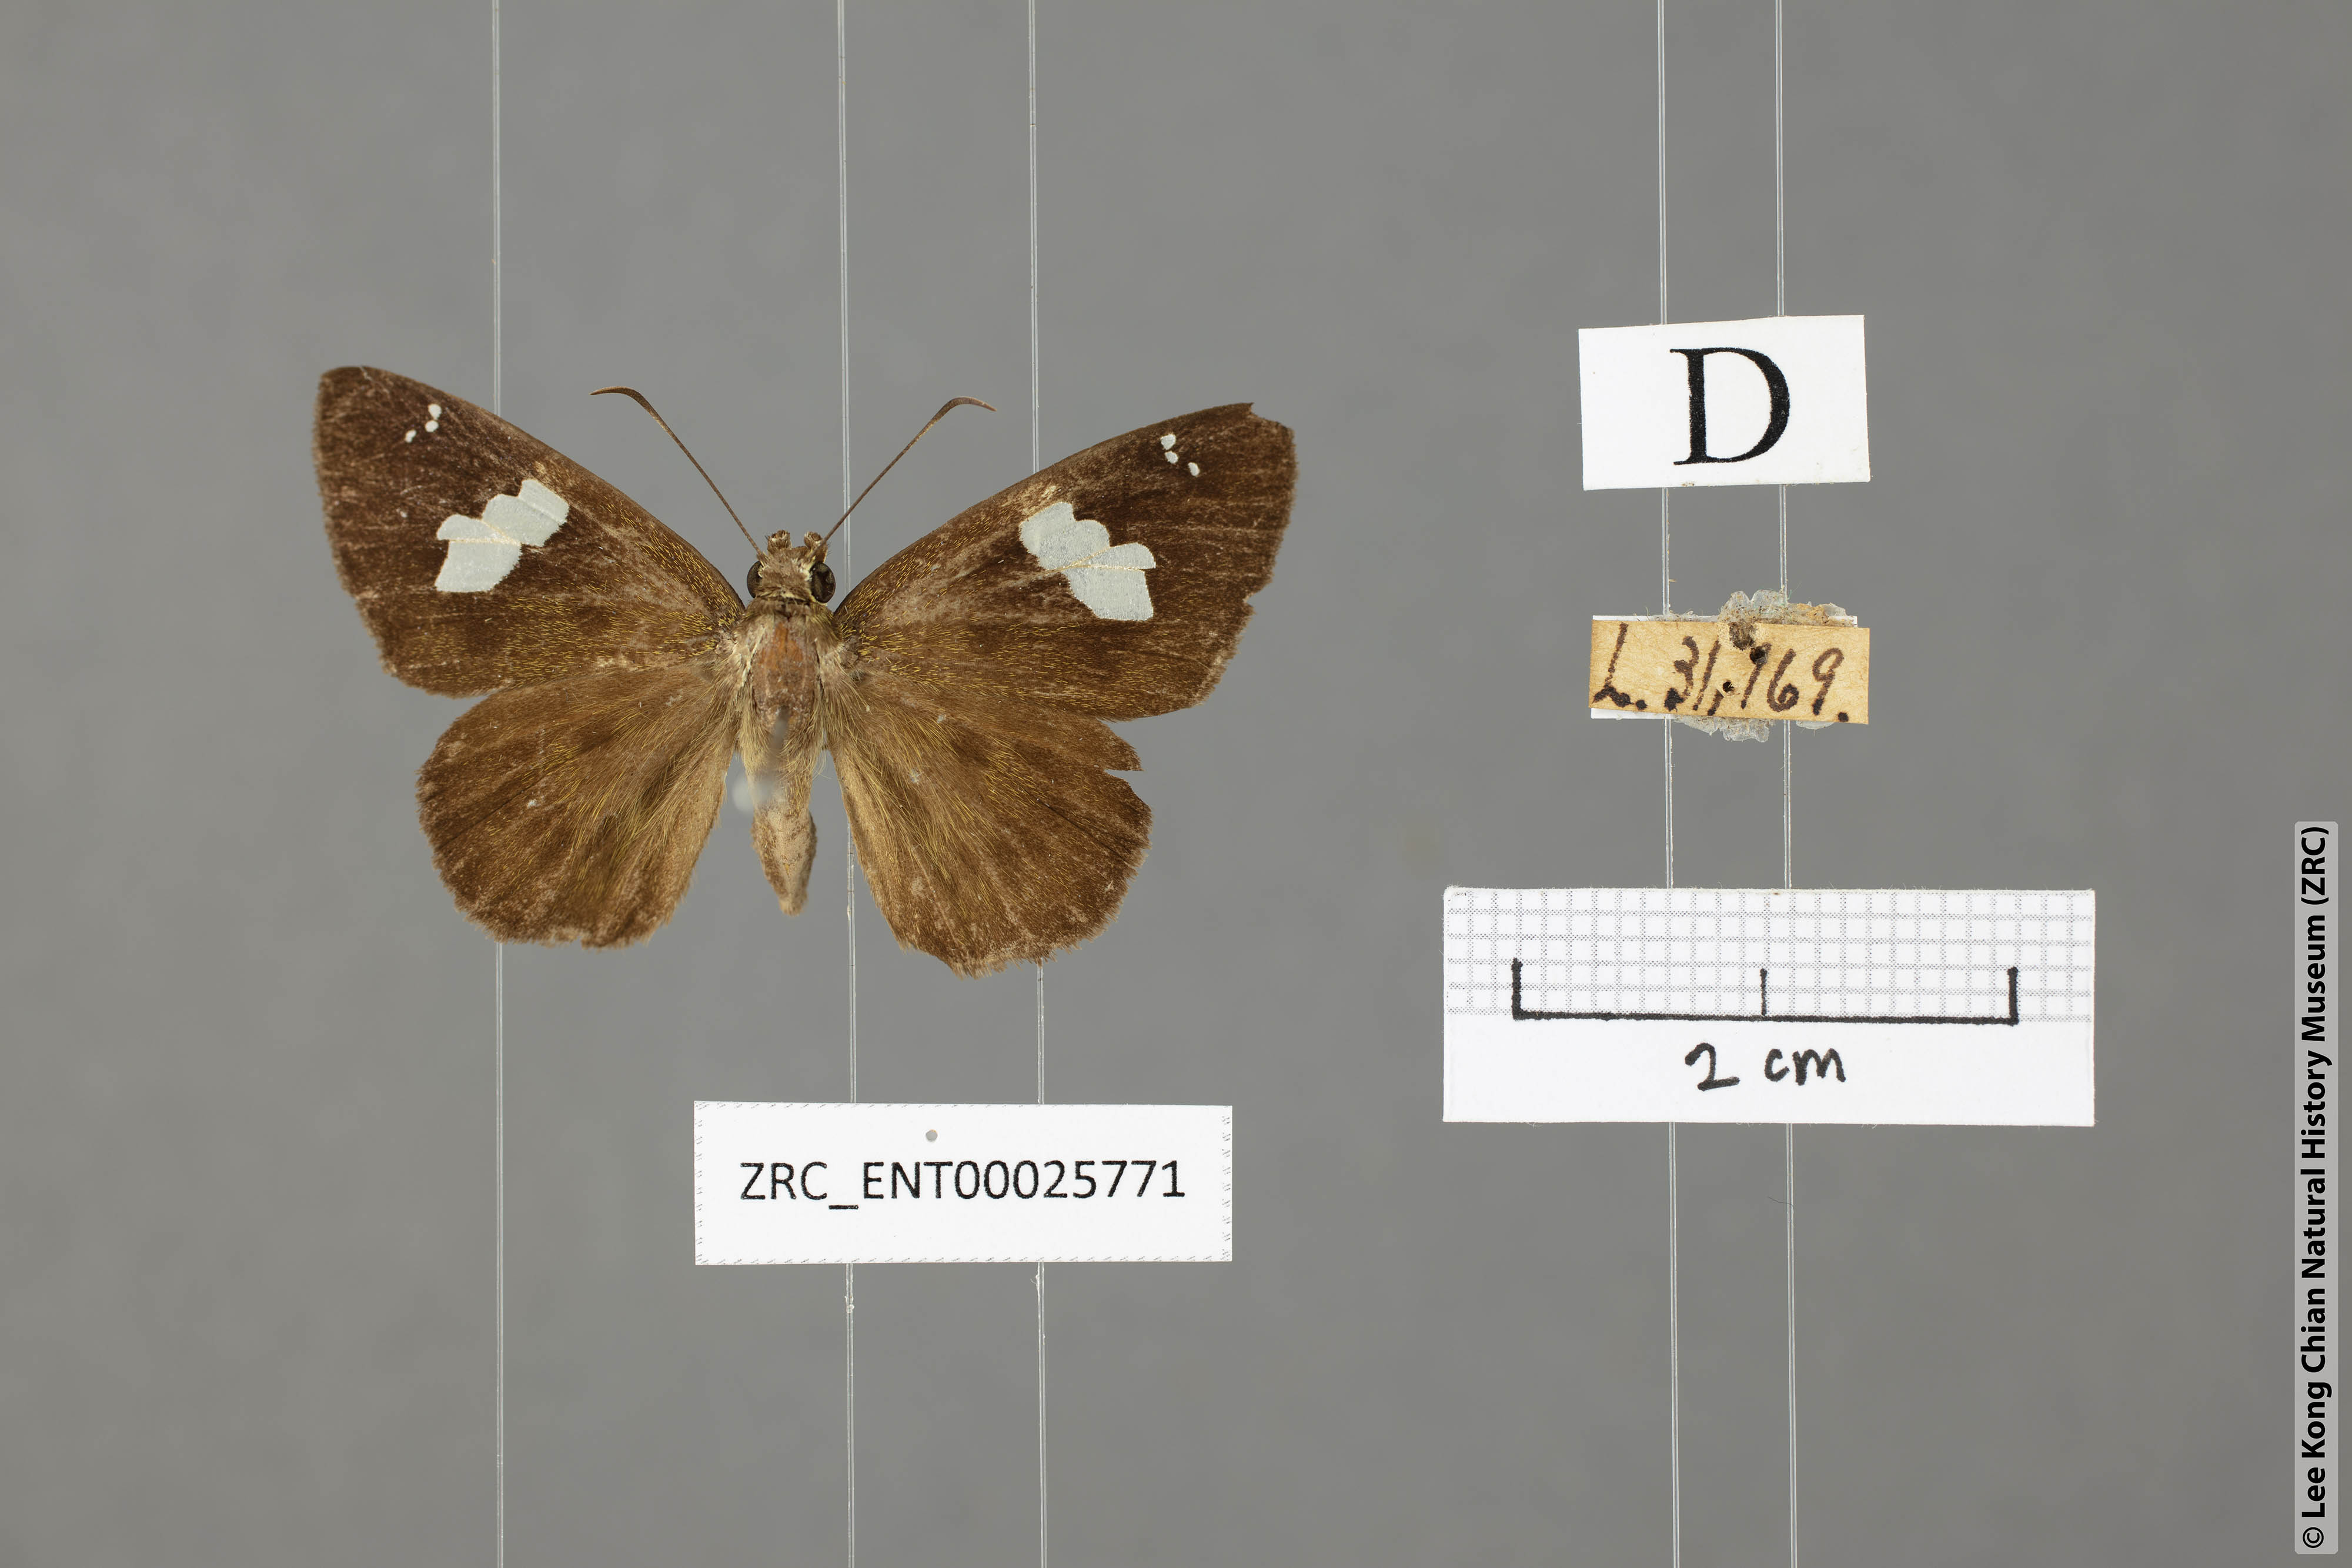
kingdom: Animalia
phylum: Arthropoda
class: Insecta
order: Lepidoptera
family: Hesperiidae
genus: Celaenorrhinus
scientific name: Celaenorrhinus asmara
